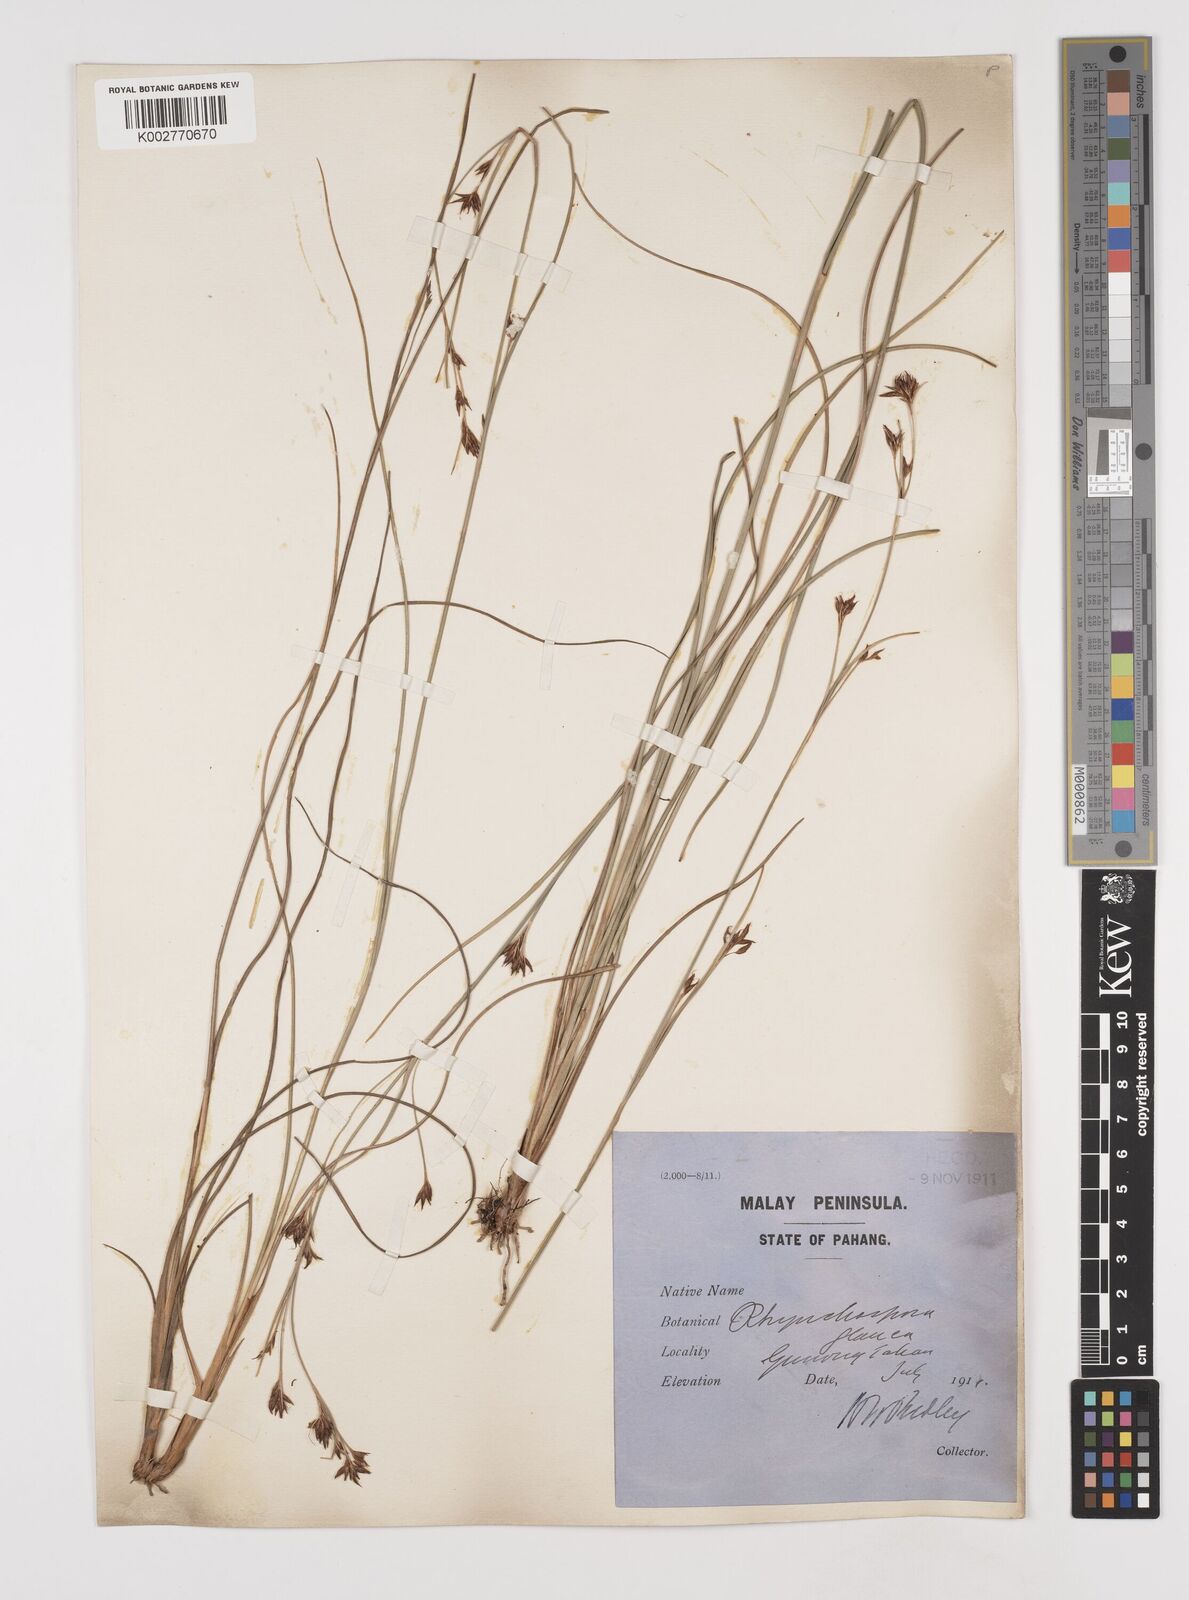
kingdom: Plantae
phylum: Tracheophyta
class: Liliopsida
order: Poales
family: Cyperaceae
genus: Rhynchospora
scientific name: Rhynchospora rugosa
